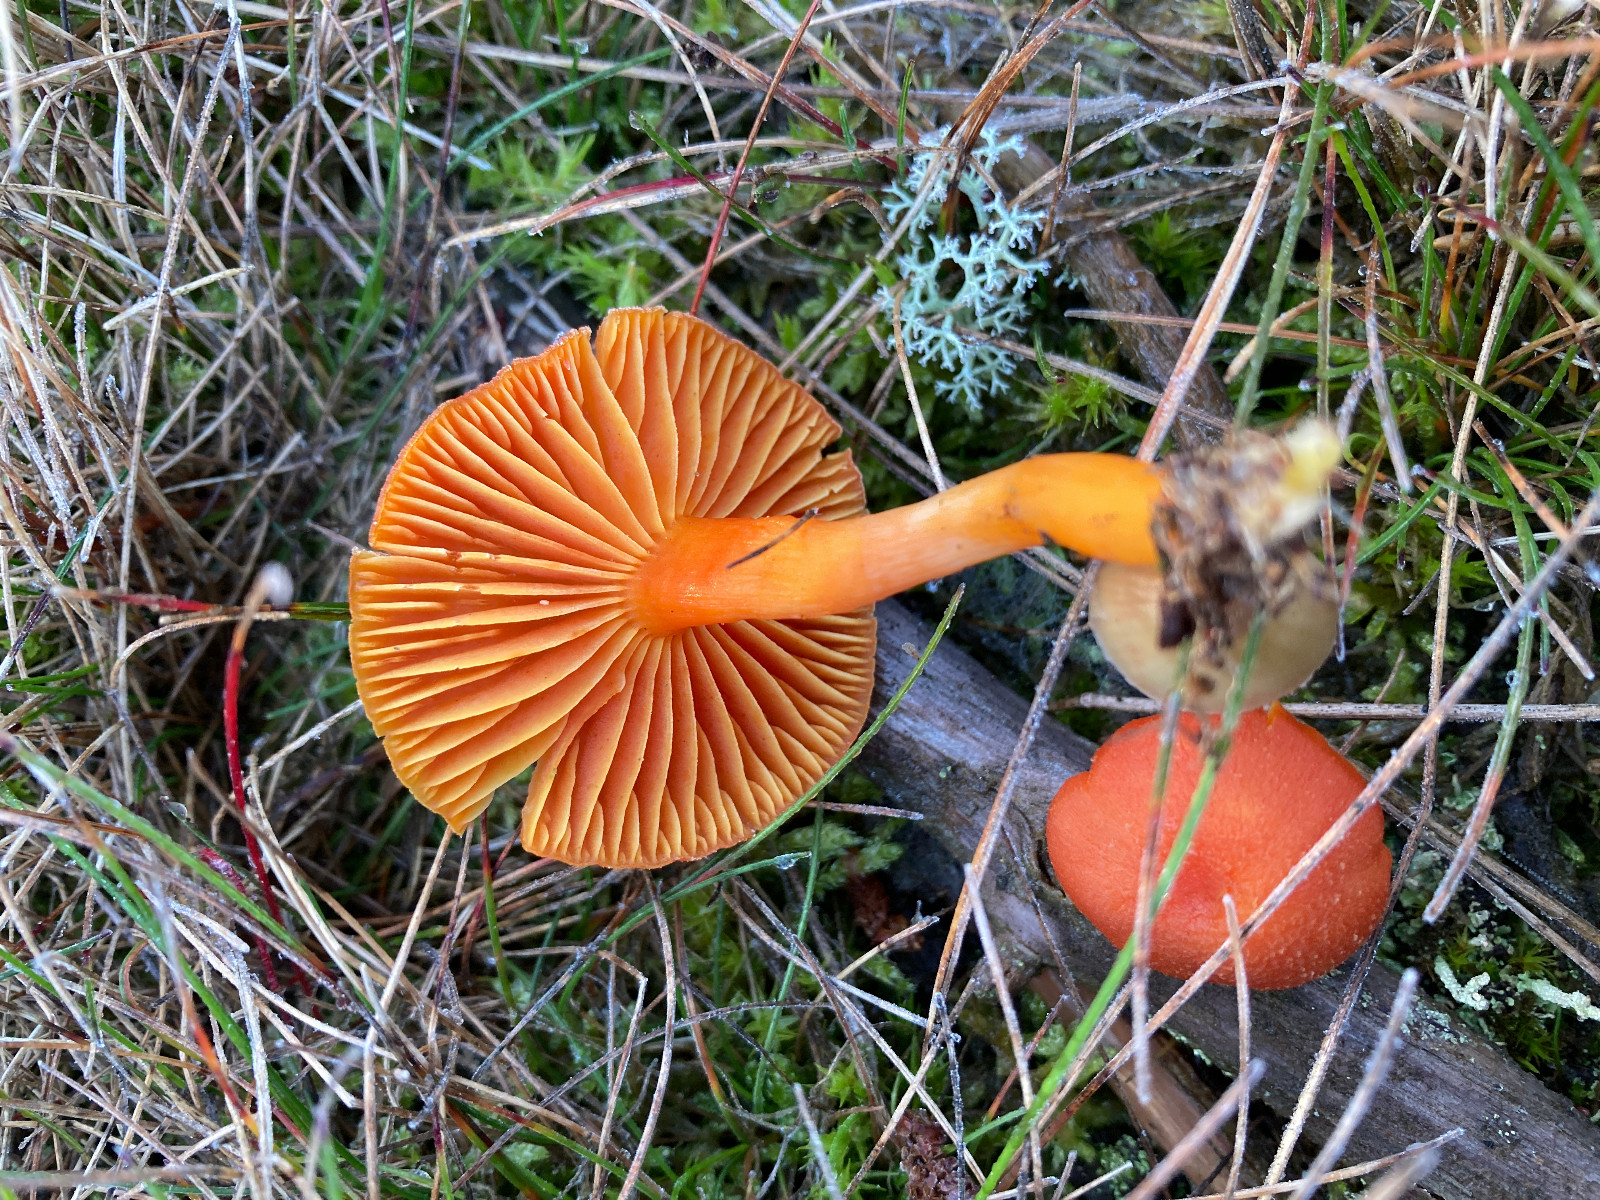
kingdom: Fungi
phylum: Basidiomycota
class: Agaricomycetes
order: Agaricales
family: Hygrophoraceae
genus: Hygrocybe
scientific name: Hygrocybe miniata
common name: mønje-vokshat
